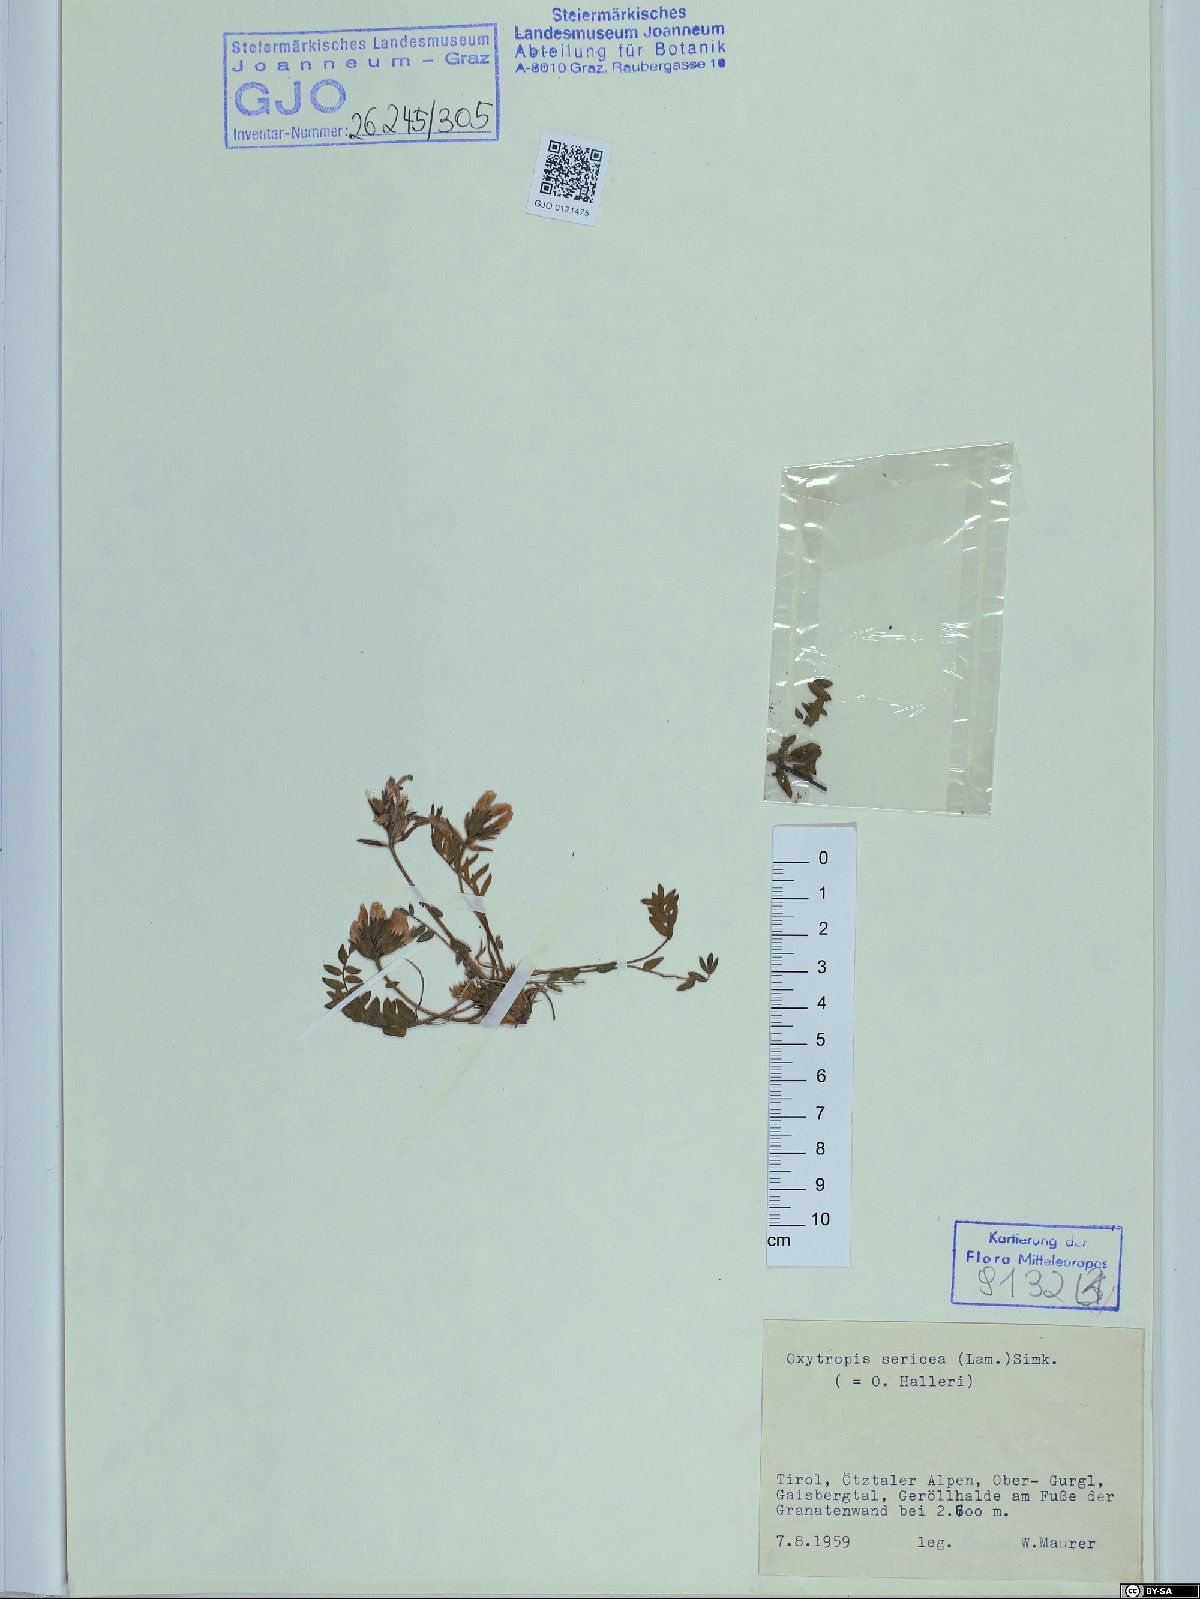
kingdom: Plantae
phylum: Tracheophyta
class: Magnoliopsida
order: Fabales
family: Fabaceae
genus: Oxytropis
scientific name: Oxytropis halleri
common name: Purple oxytropis
